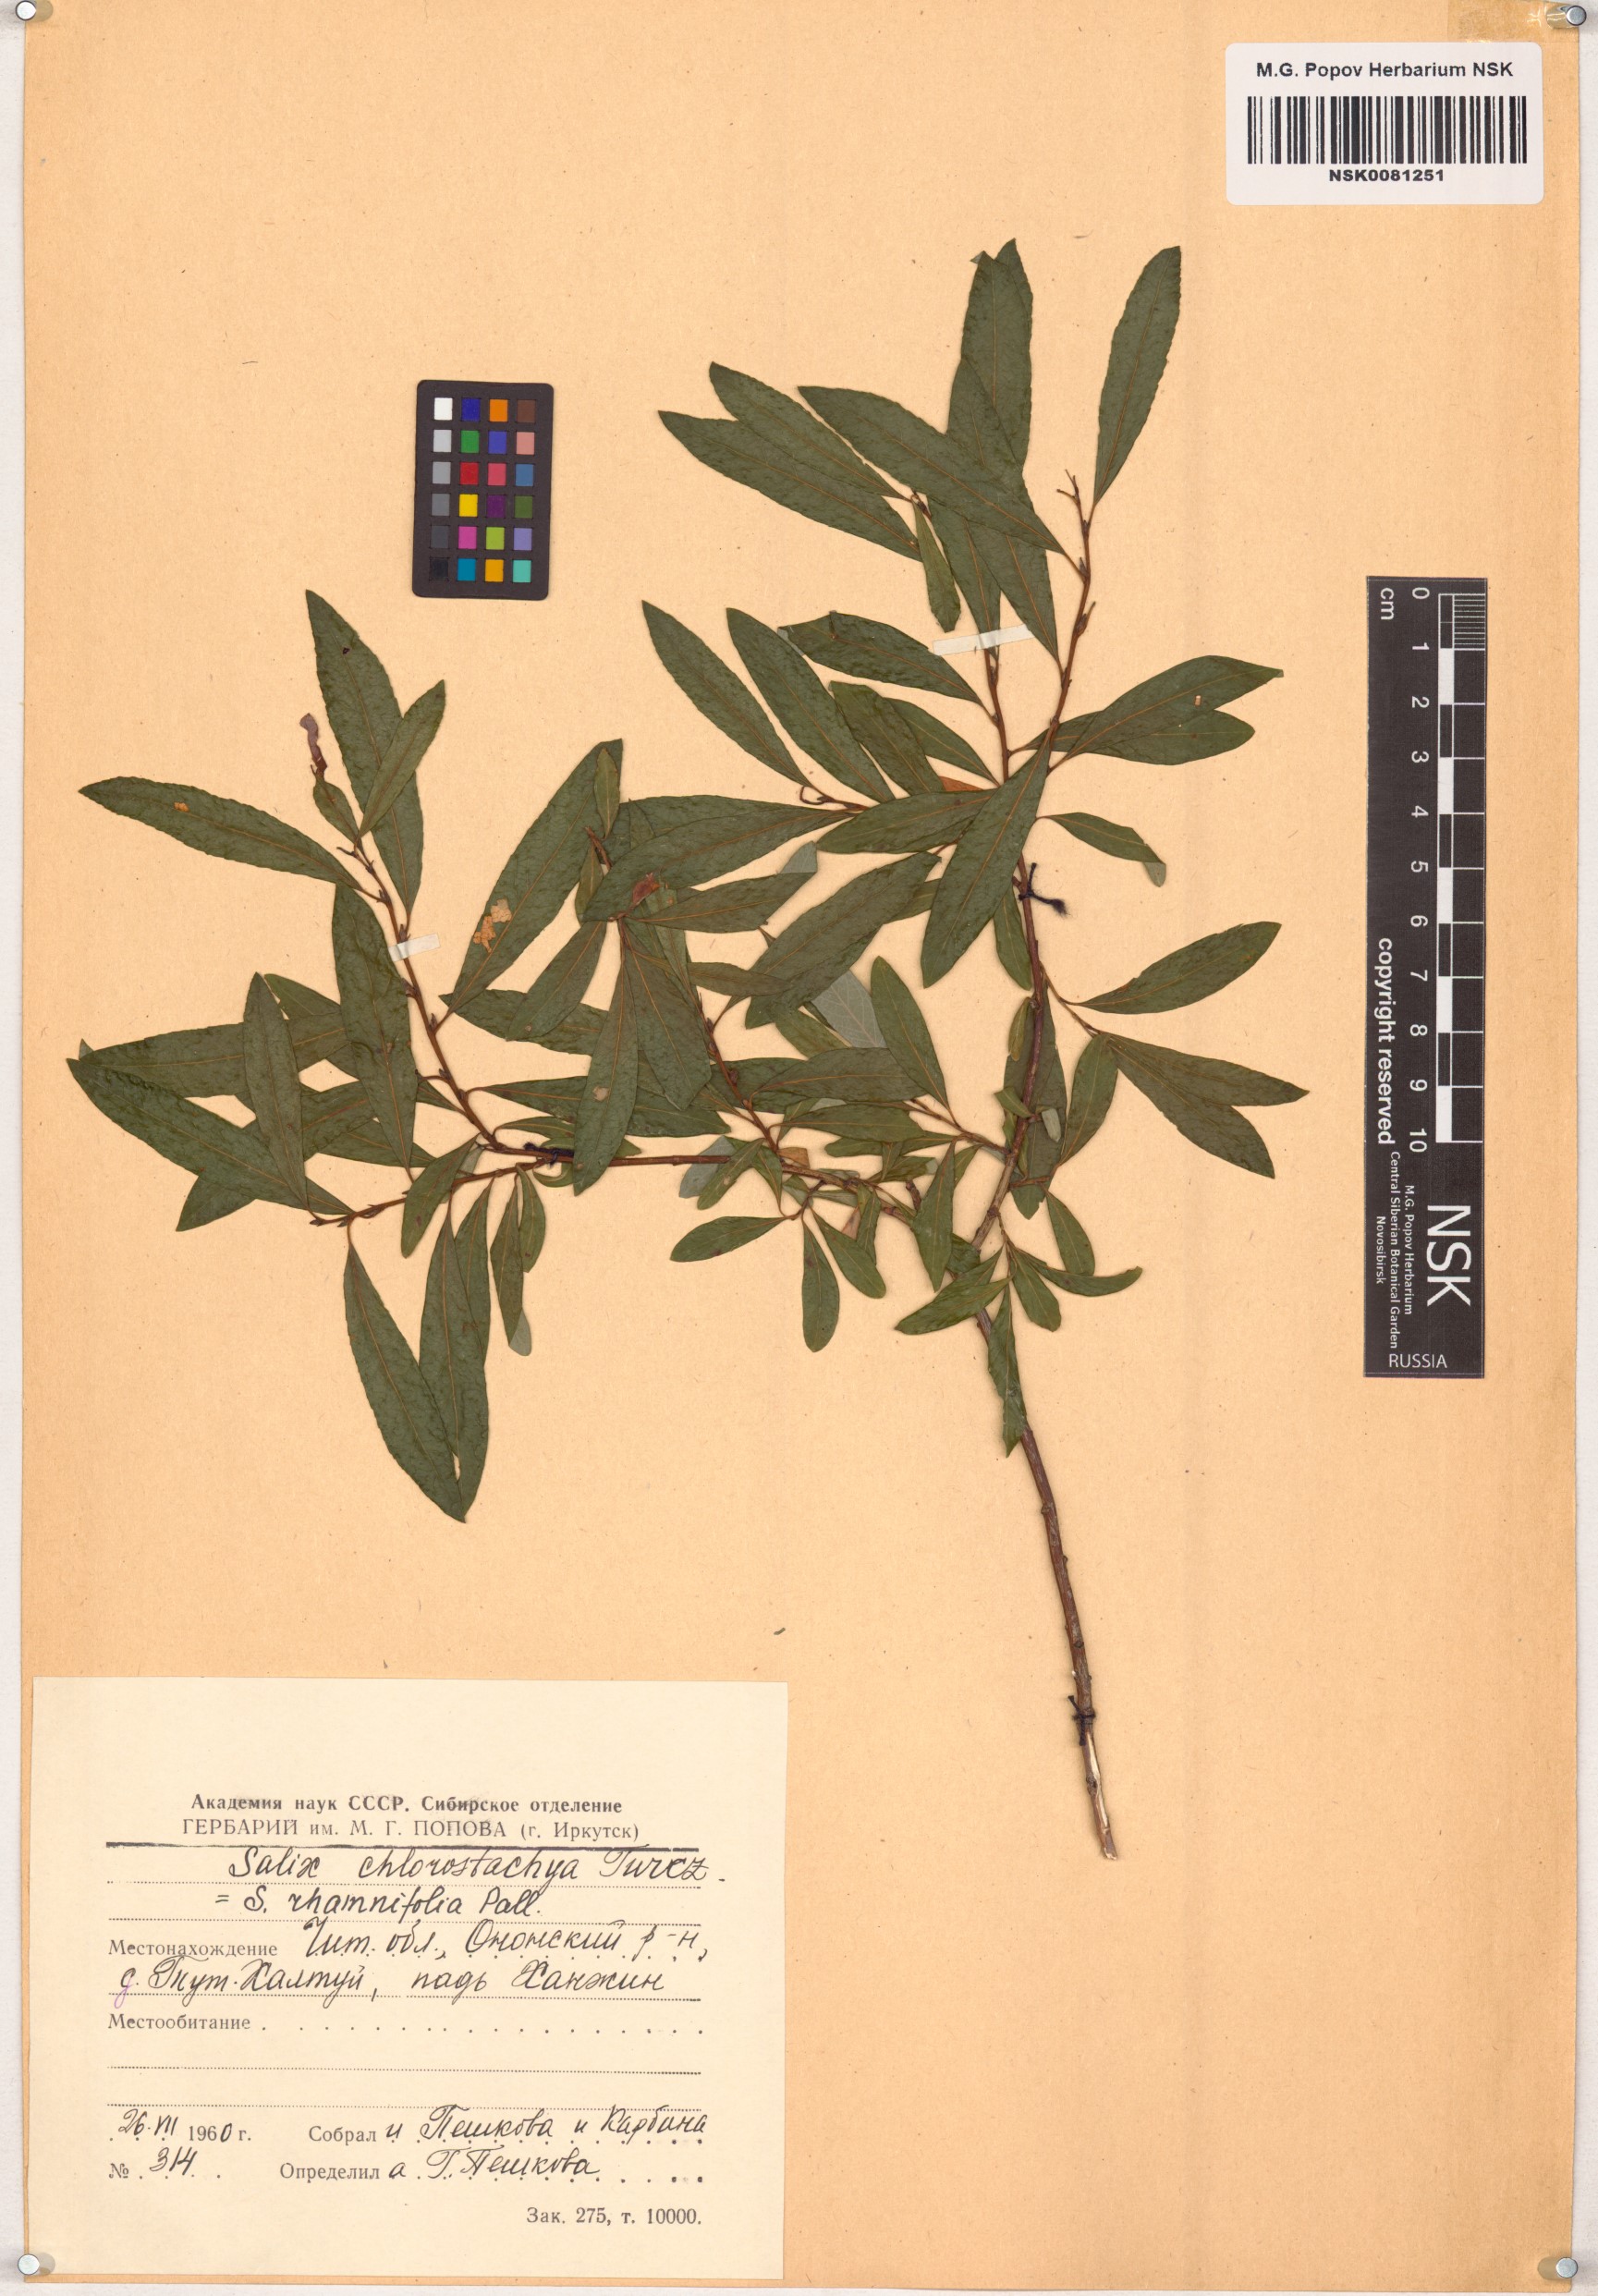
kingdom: Plantae
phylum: Tracheophyta
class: Magnoliopsida
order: Malpighiales
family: Salicaceae
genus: Salix
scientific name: Salix rhamnifolia
